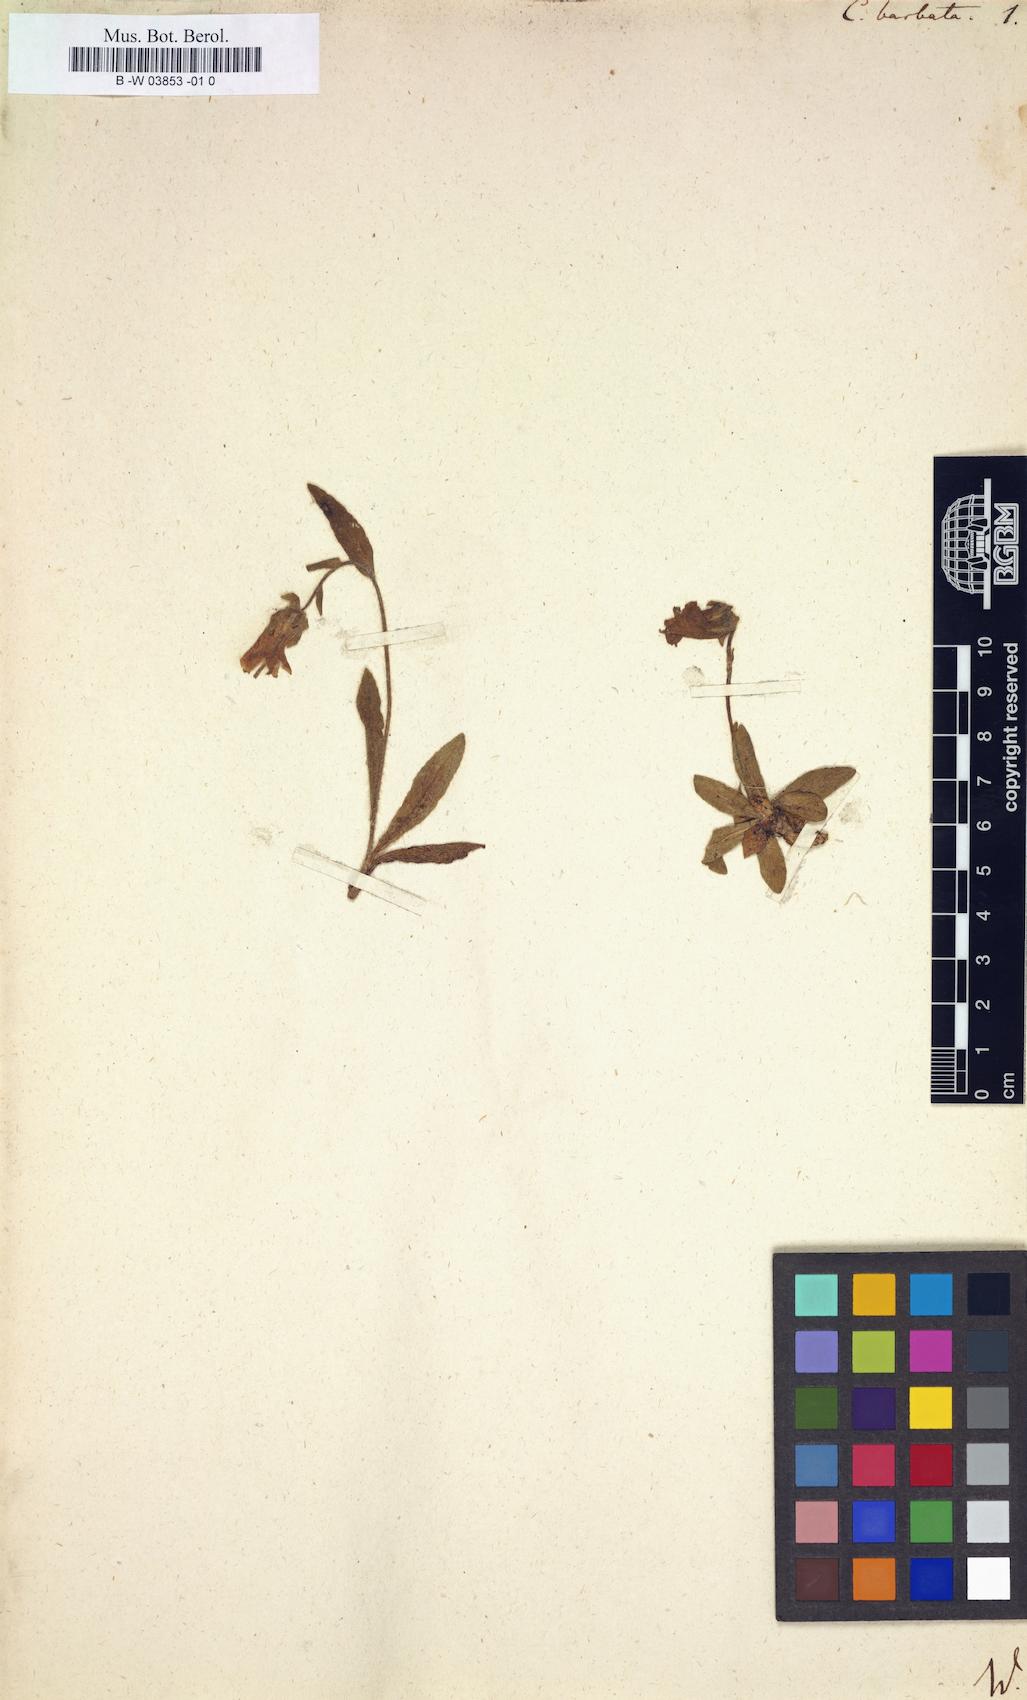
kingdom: Plantae
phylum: Tracheophyta
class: Magnoliopsida
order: Asterales
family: Campanulaceae
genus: Campanula
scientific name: Campanula barbata
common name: Bearded bellflower
